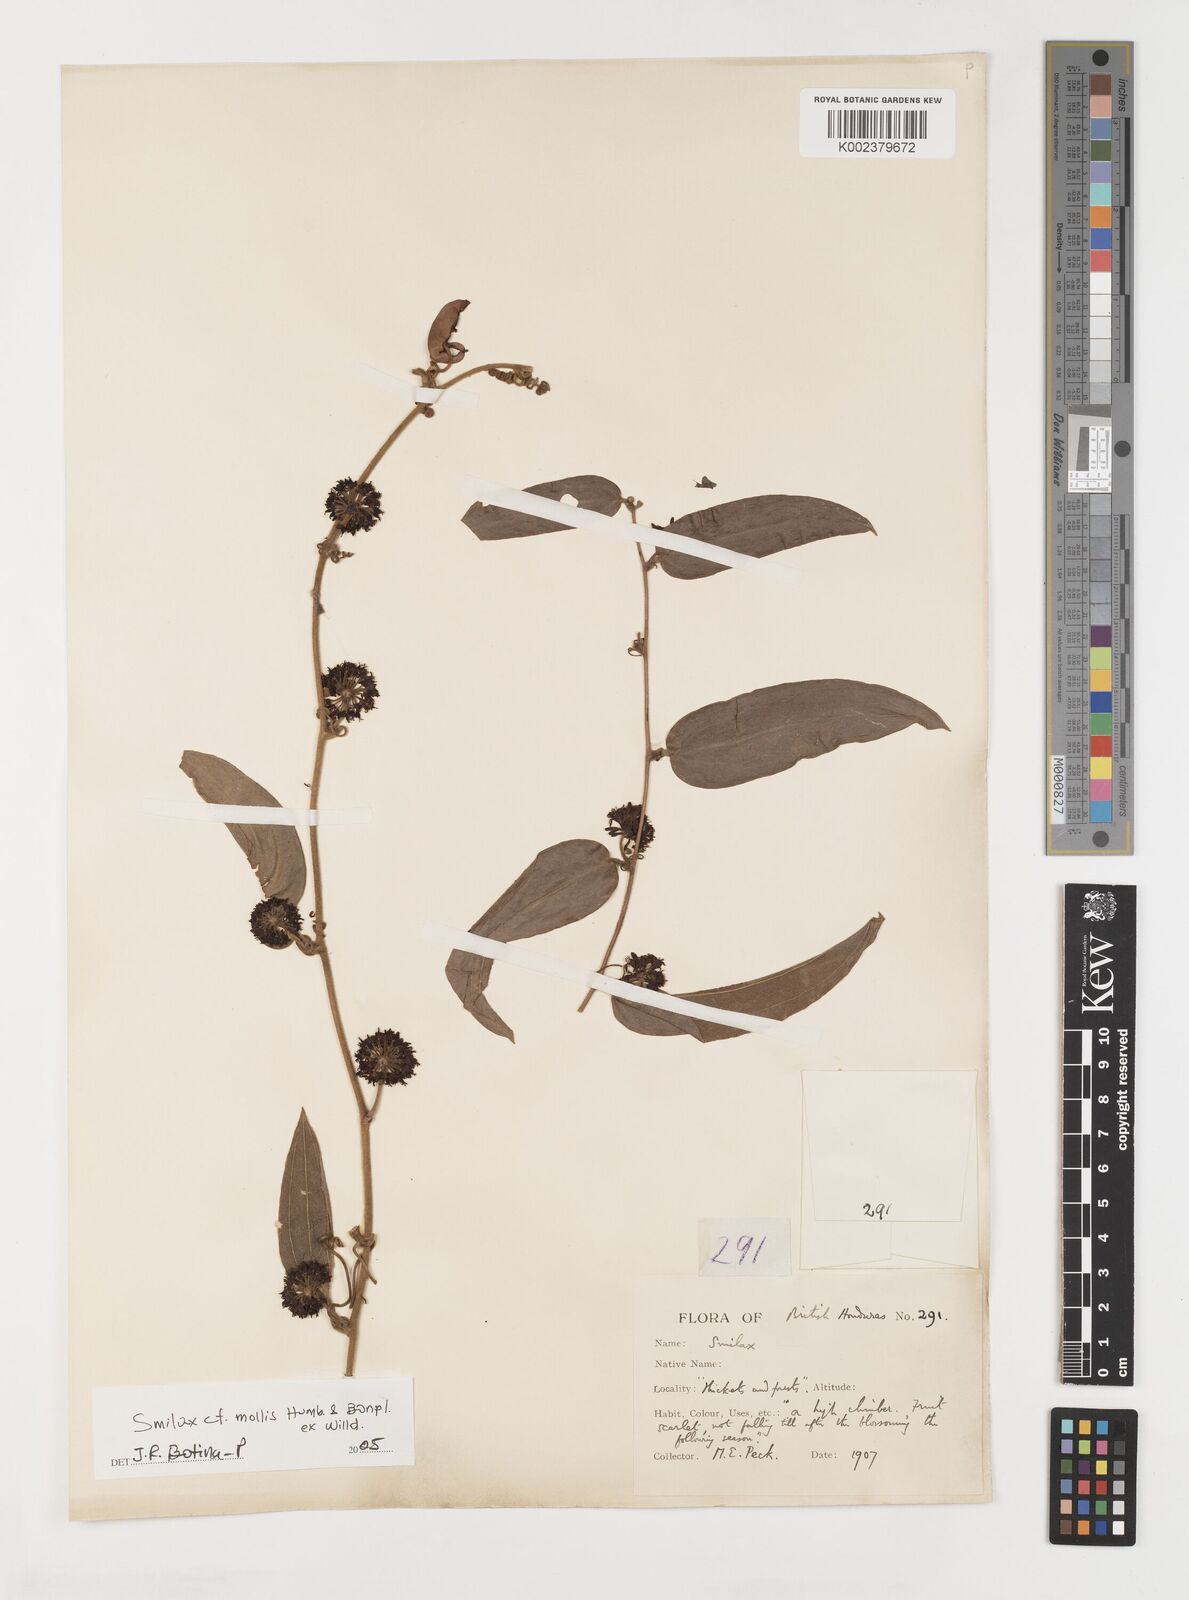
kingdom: Plantae
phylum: Tracheophyta
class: Liliopsida
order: Liliales
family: Smilacaceae
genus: Smilax
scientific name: Smilax mollis
